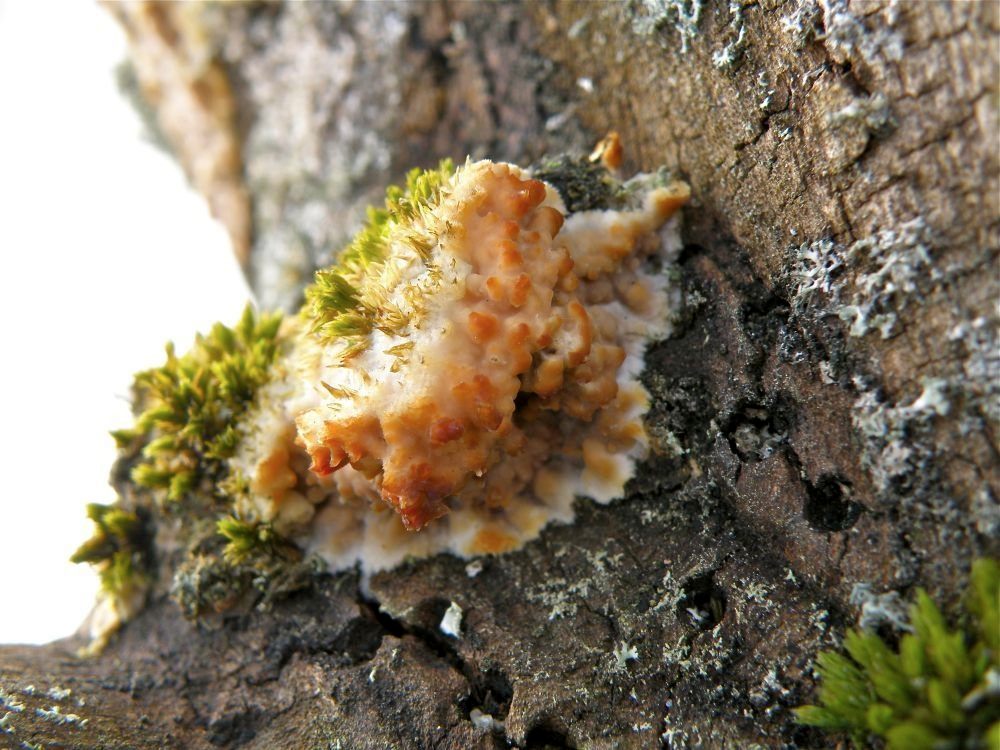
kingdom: Fungi
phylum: Basidiomycota
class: Agaricomycetes
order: Polyporales
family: Meruliaceae
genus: Phlebia
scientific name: Phlebia radiata
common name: stråle-åresvamp
